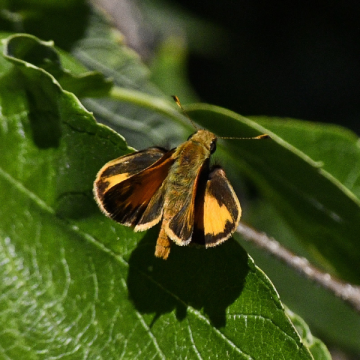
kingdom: Animalia
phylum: Arthropoda
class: Insecta
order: Lepidoptera
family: Hesperiidae
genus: Lon
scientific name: Lon zabulon
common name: Zabulon Skipper
